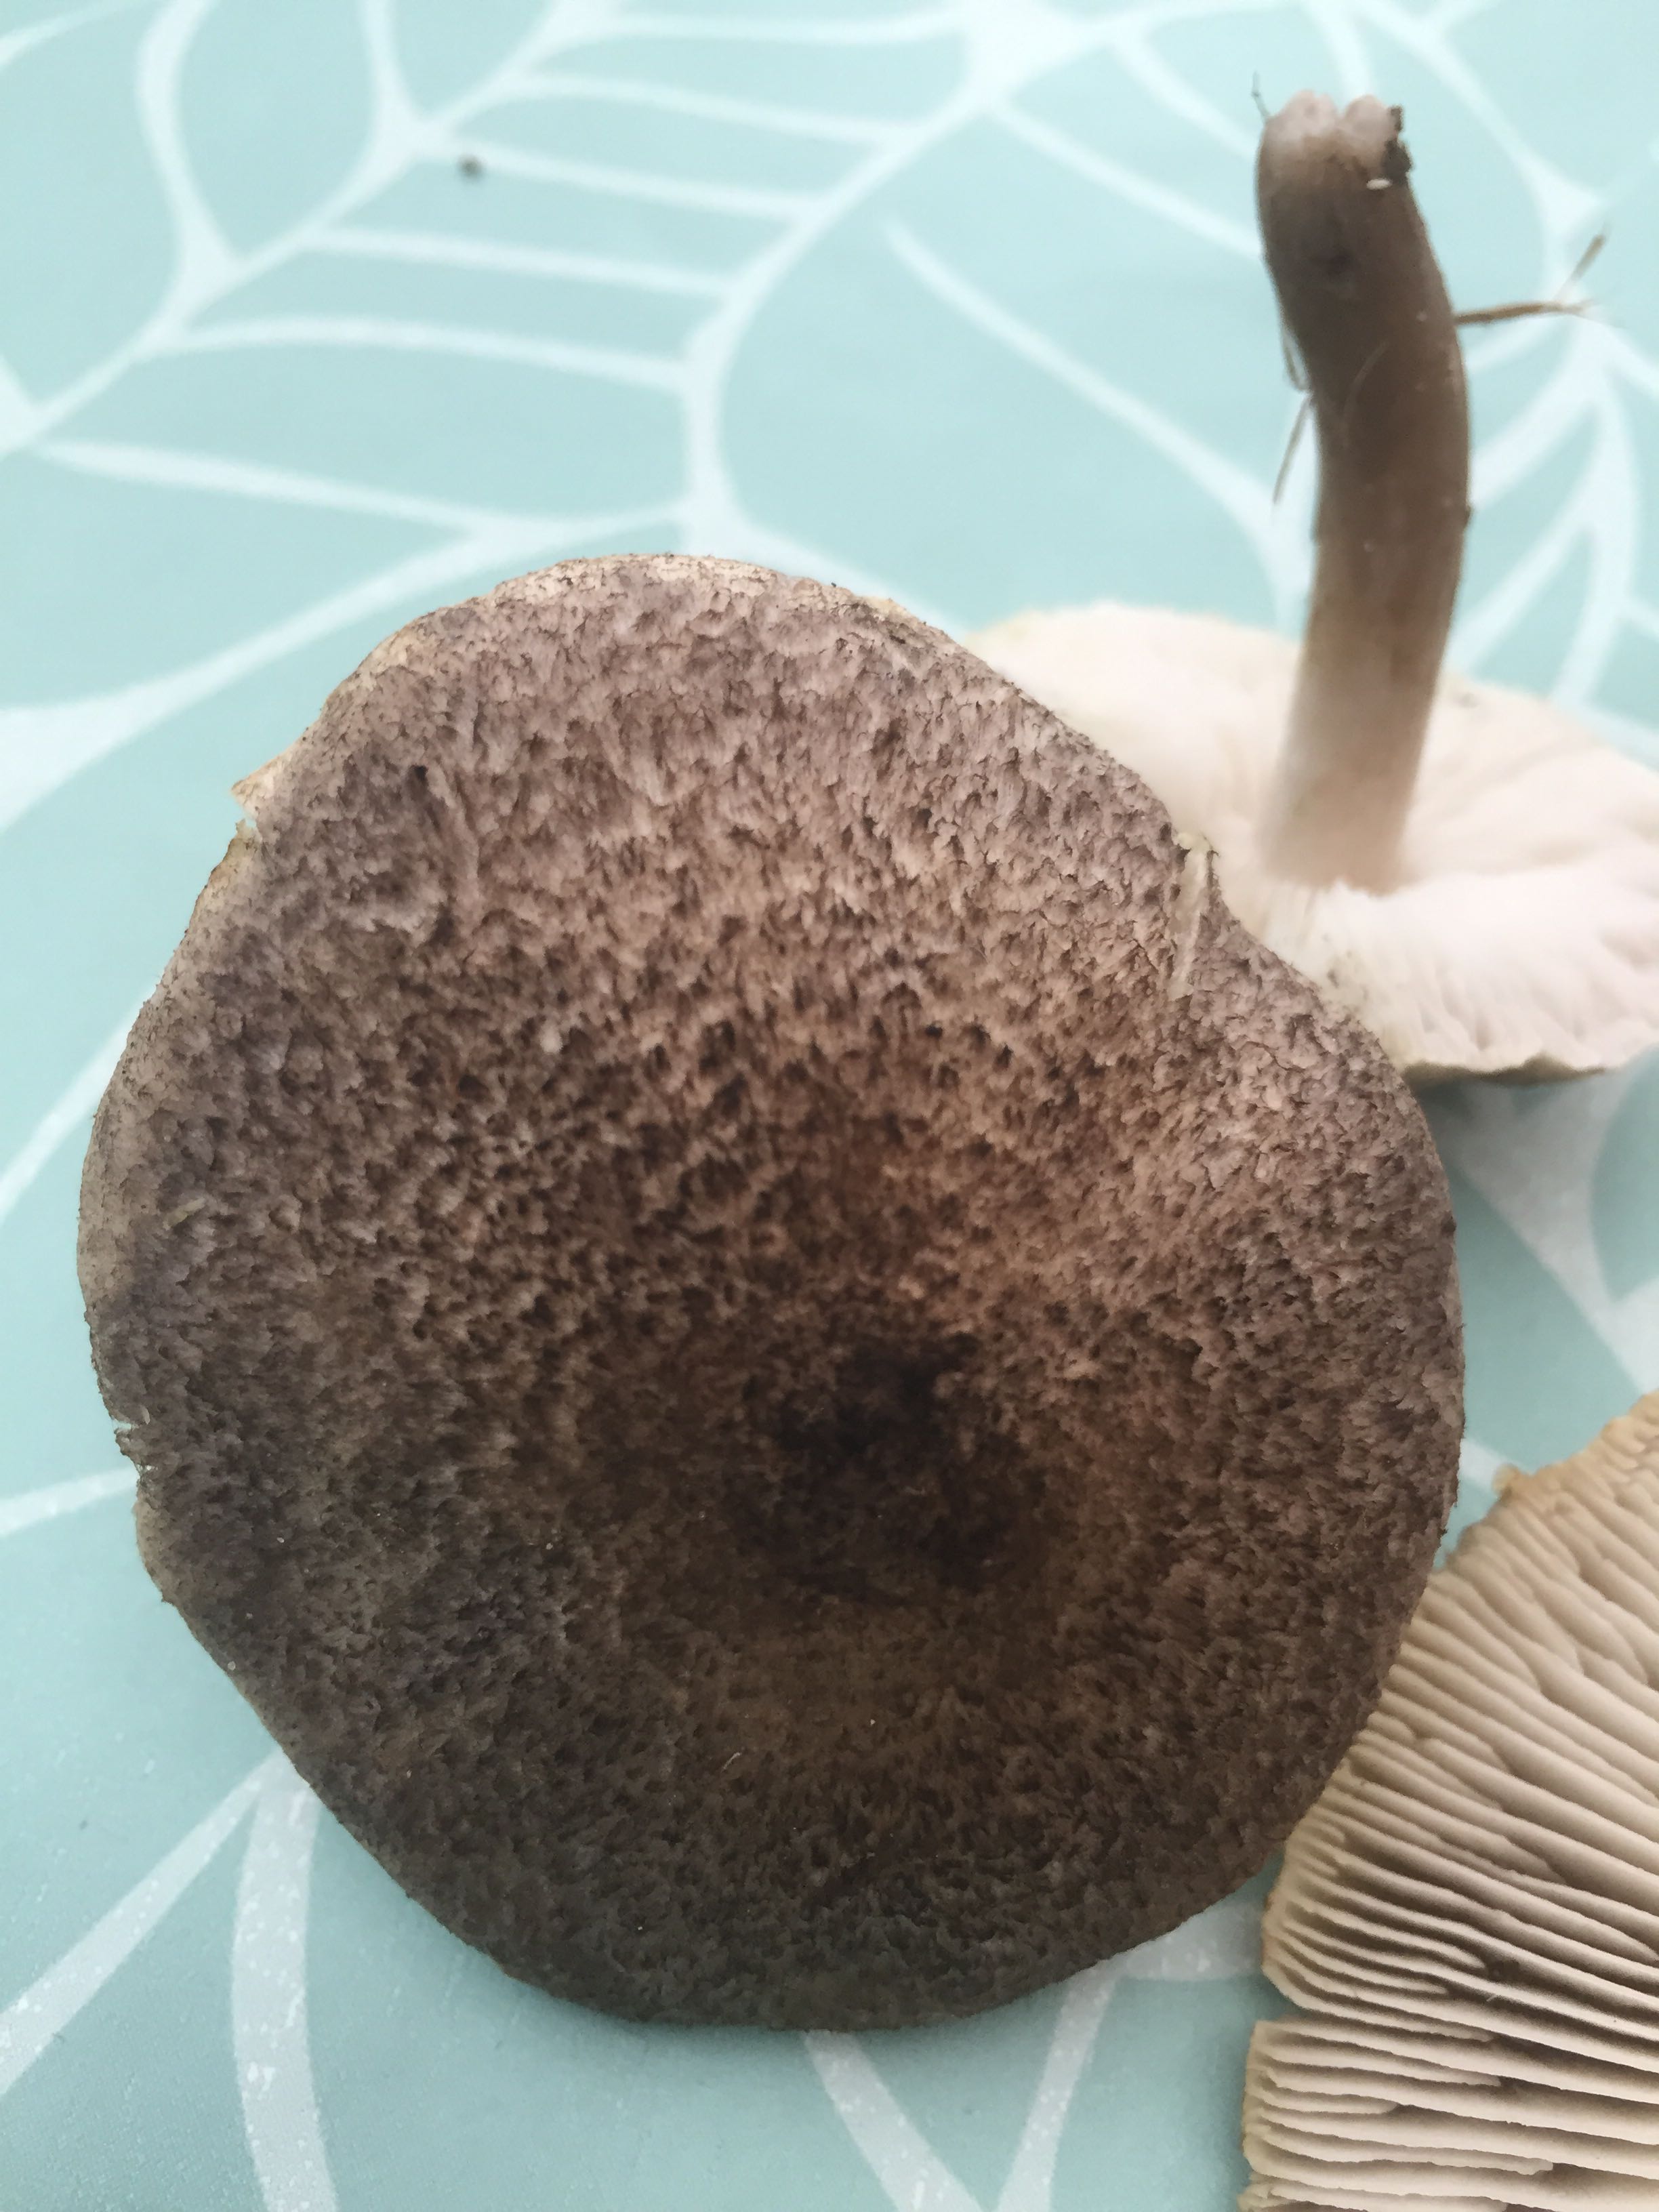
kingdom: Fungi
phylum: Basidiomycota
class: Agaricomycetes
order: Agaricales
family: Tricholomataceae
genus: Tricholoma
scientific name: Tricholoma scalpturatum
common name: gulplettet ridderhat
